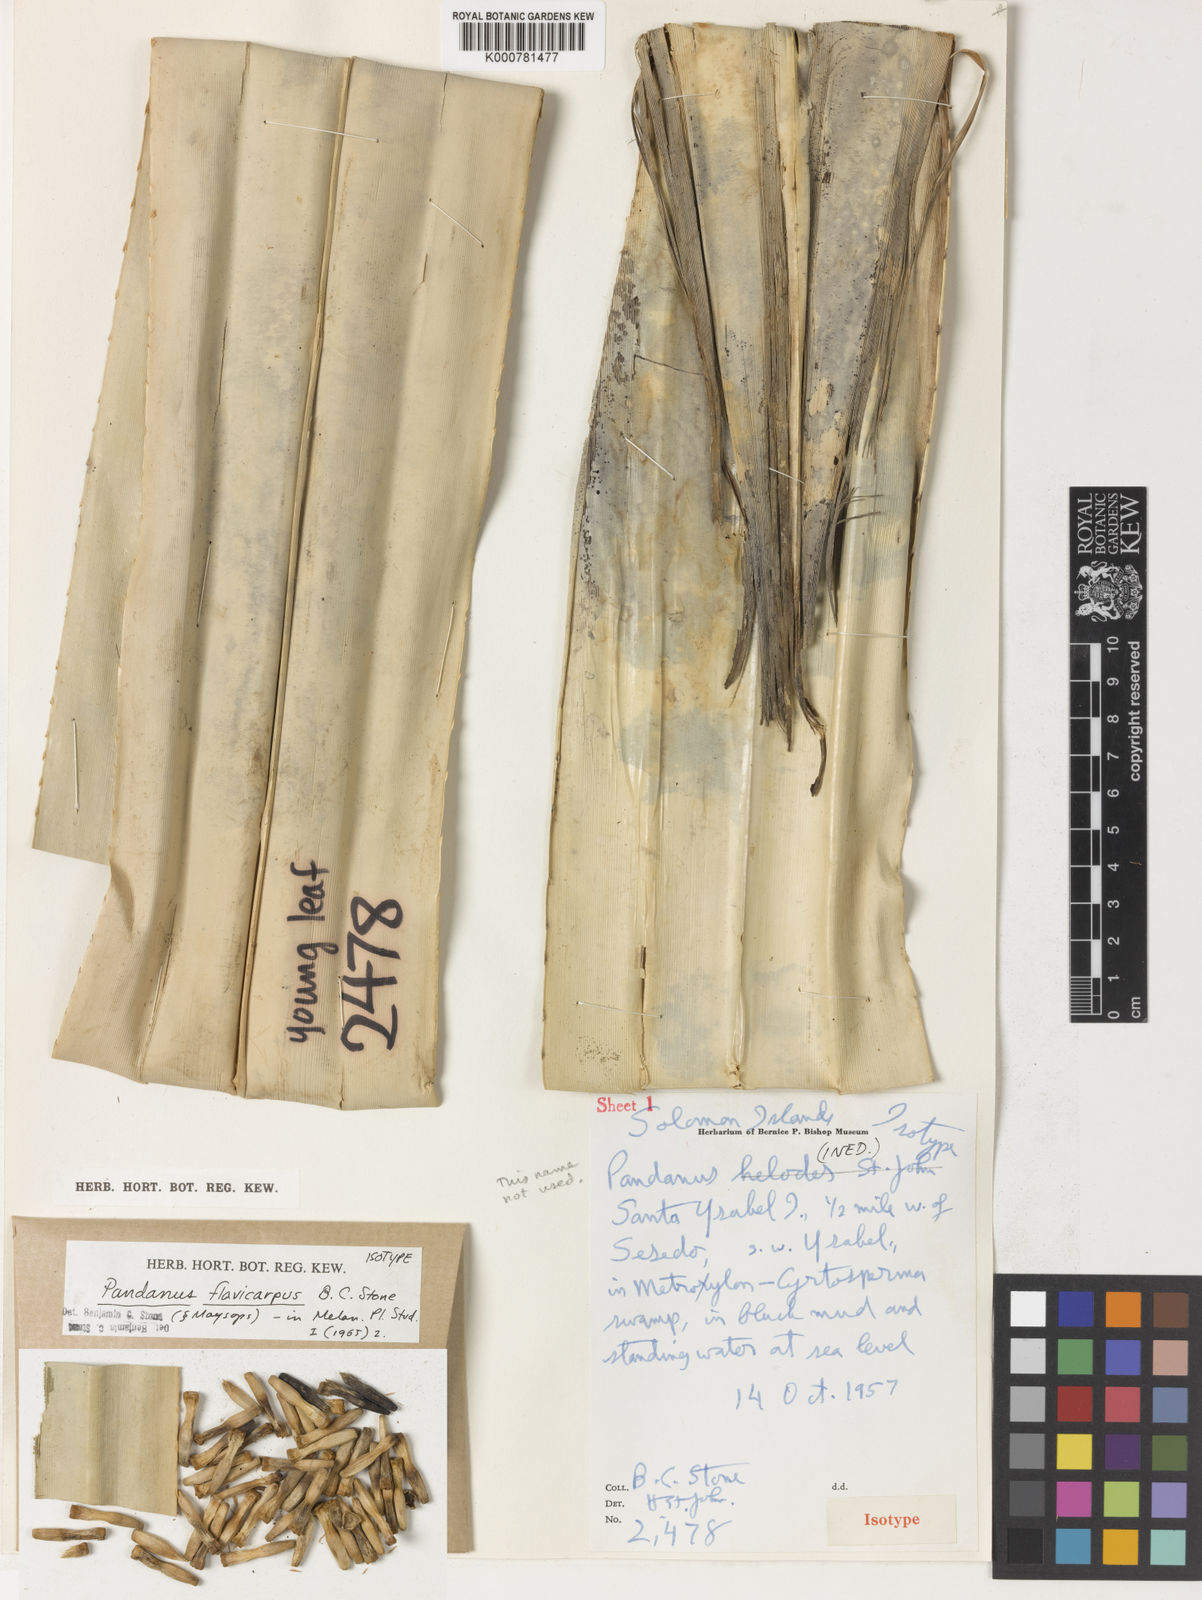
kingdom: Plantae
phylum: Tracheophyta
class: Liliopsida
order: Pandanales
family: Pandanaceae
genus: Pandanus
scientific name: Pandanus
